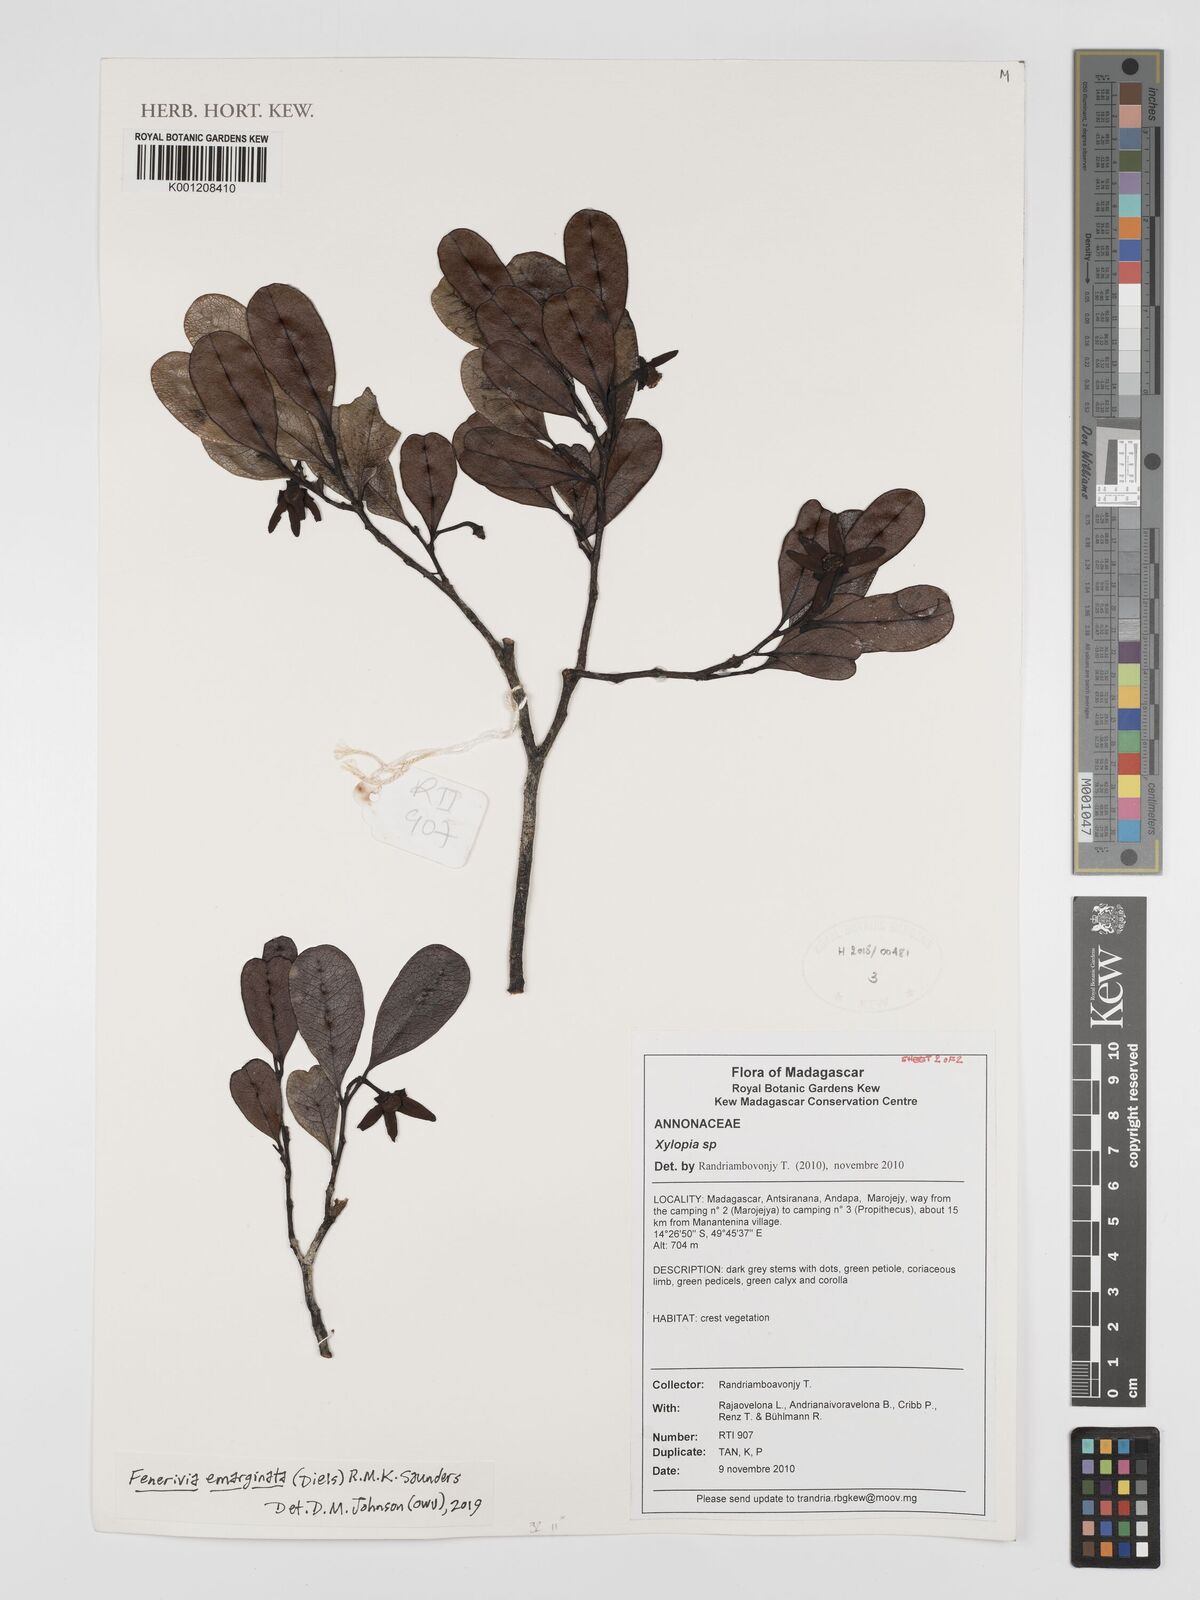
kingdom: Plantae
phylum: Tracheophyta
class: Magnoliopsida
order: Magnoliales
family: Annonaceae
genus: Xylopia
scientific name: Xylopia lastelliana
